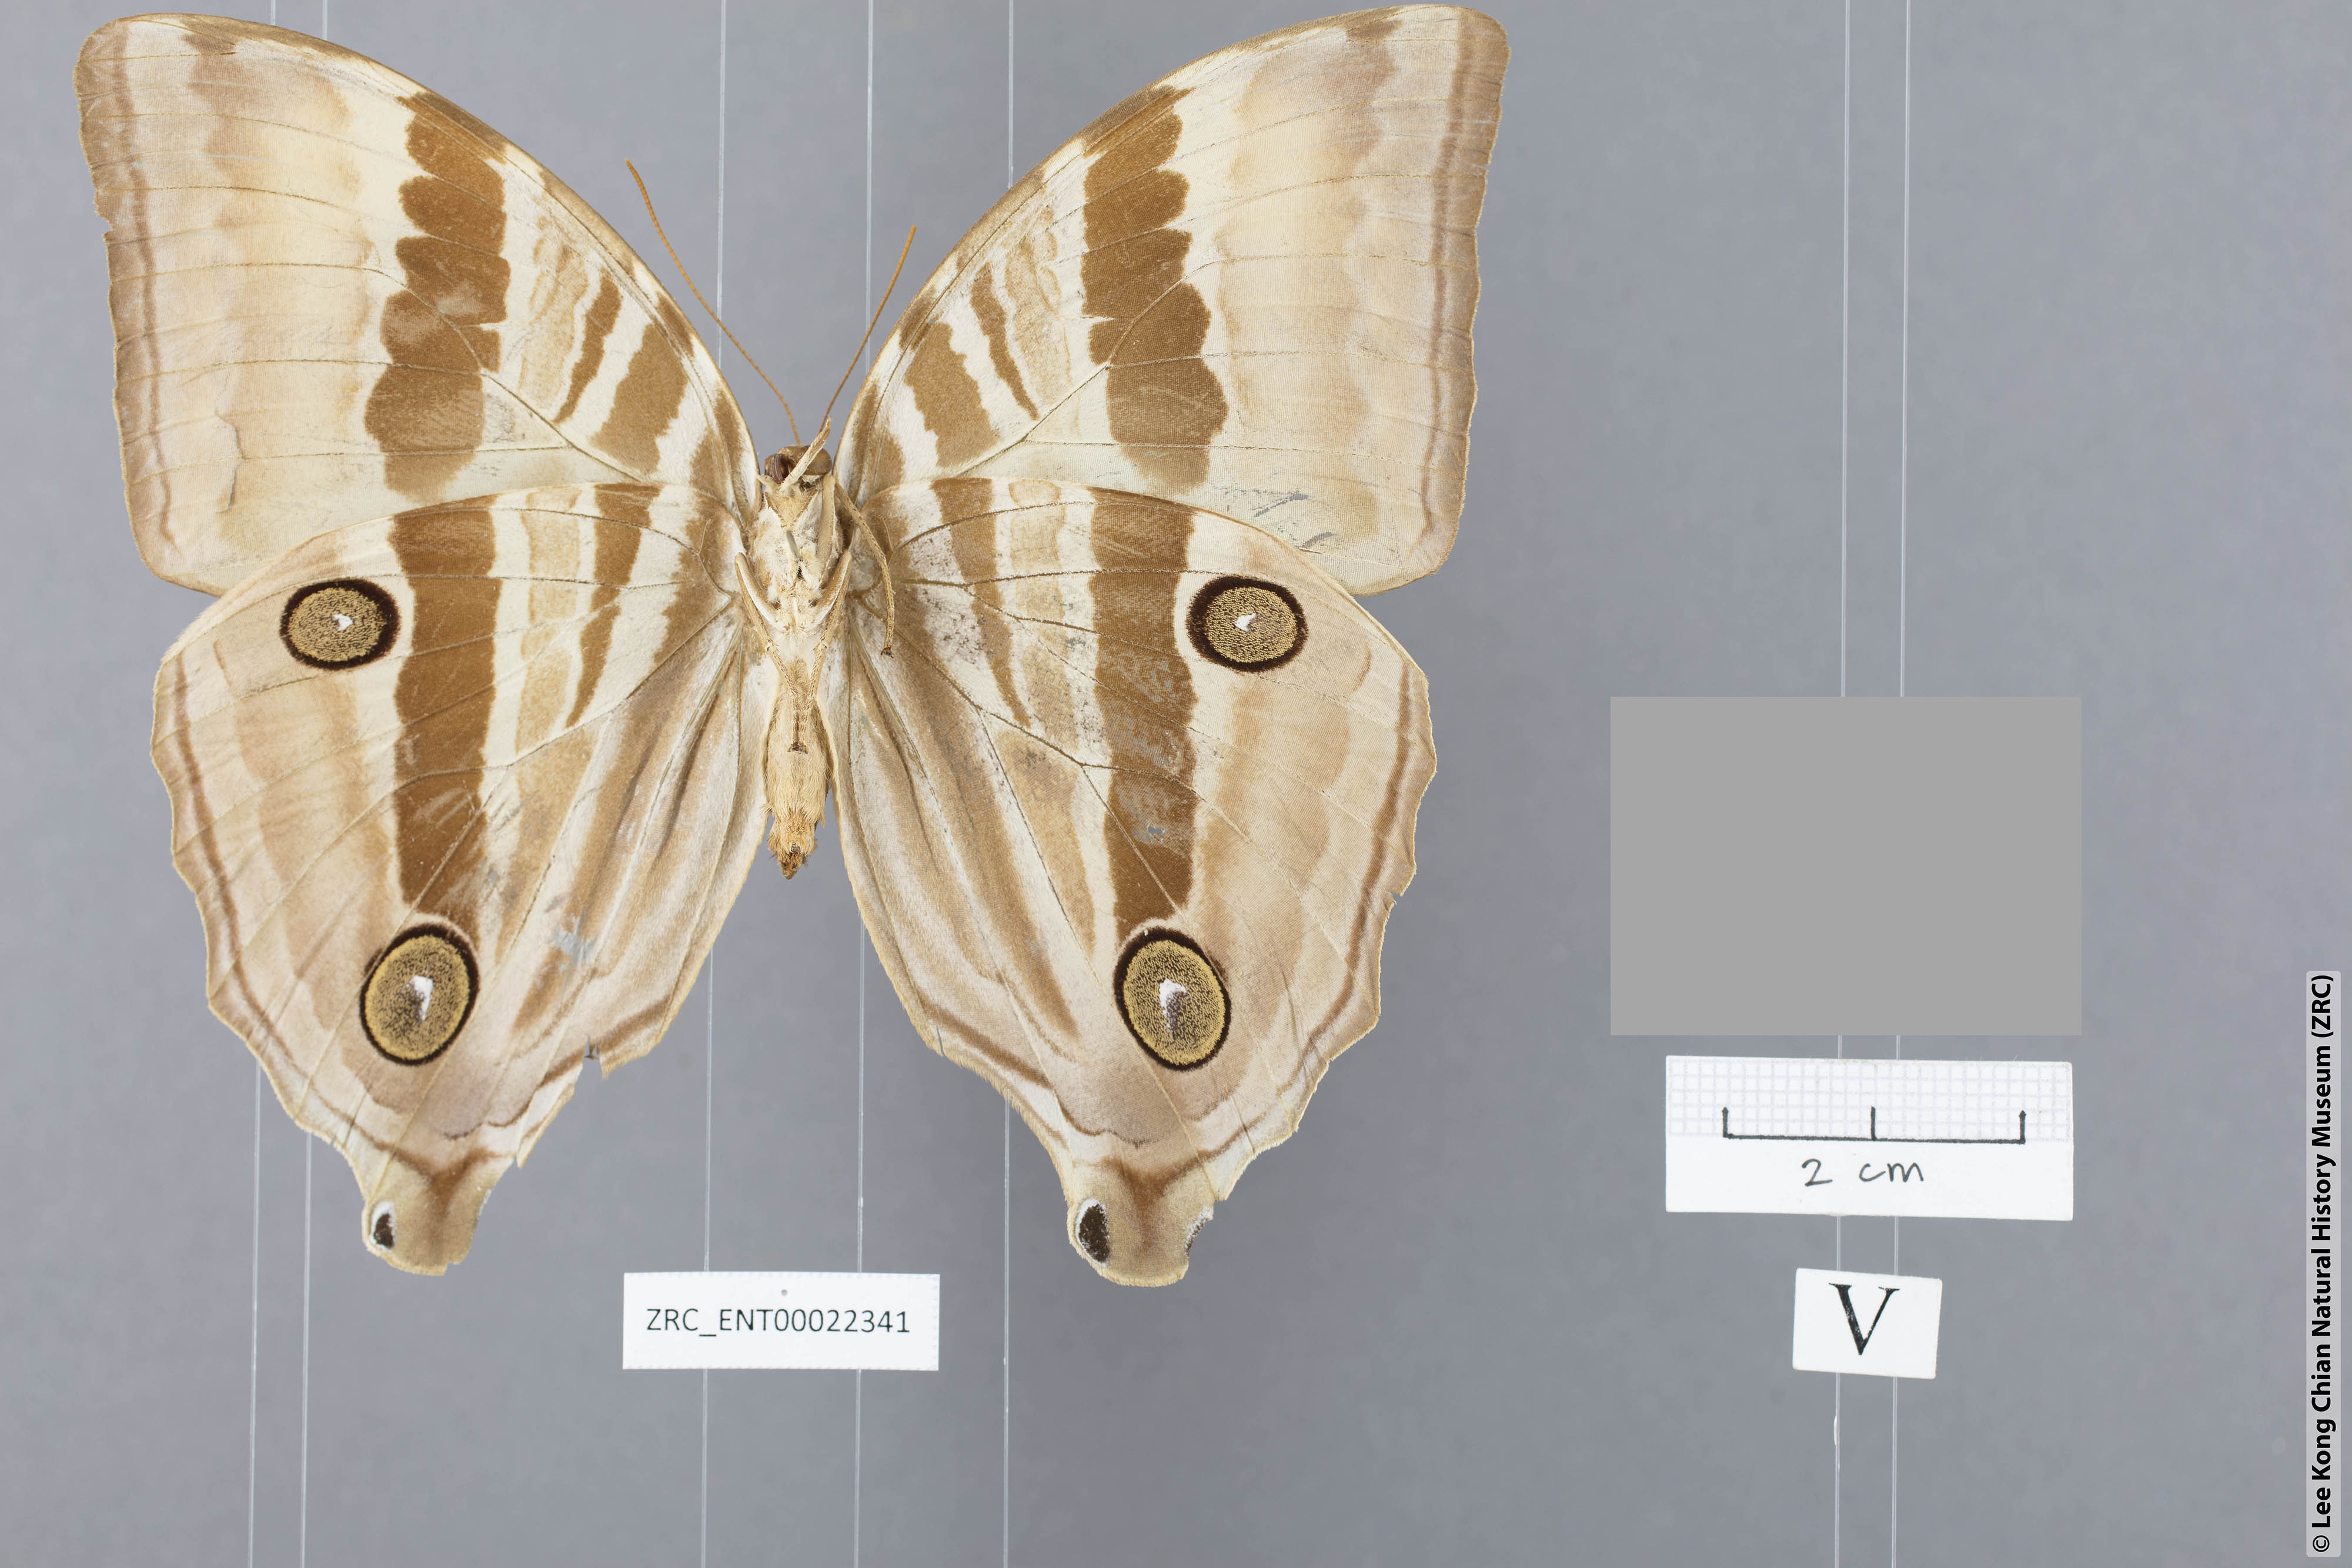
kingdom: Animalia
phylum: Arthropoda
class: Insecta
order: Lepidoptera
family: Nymphalidae
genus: Amathusia
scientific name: Amathusia perakana
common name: Perak palm king
